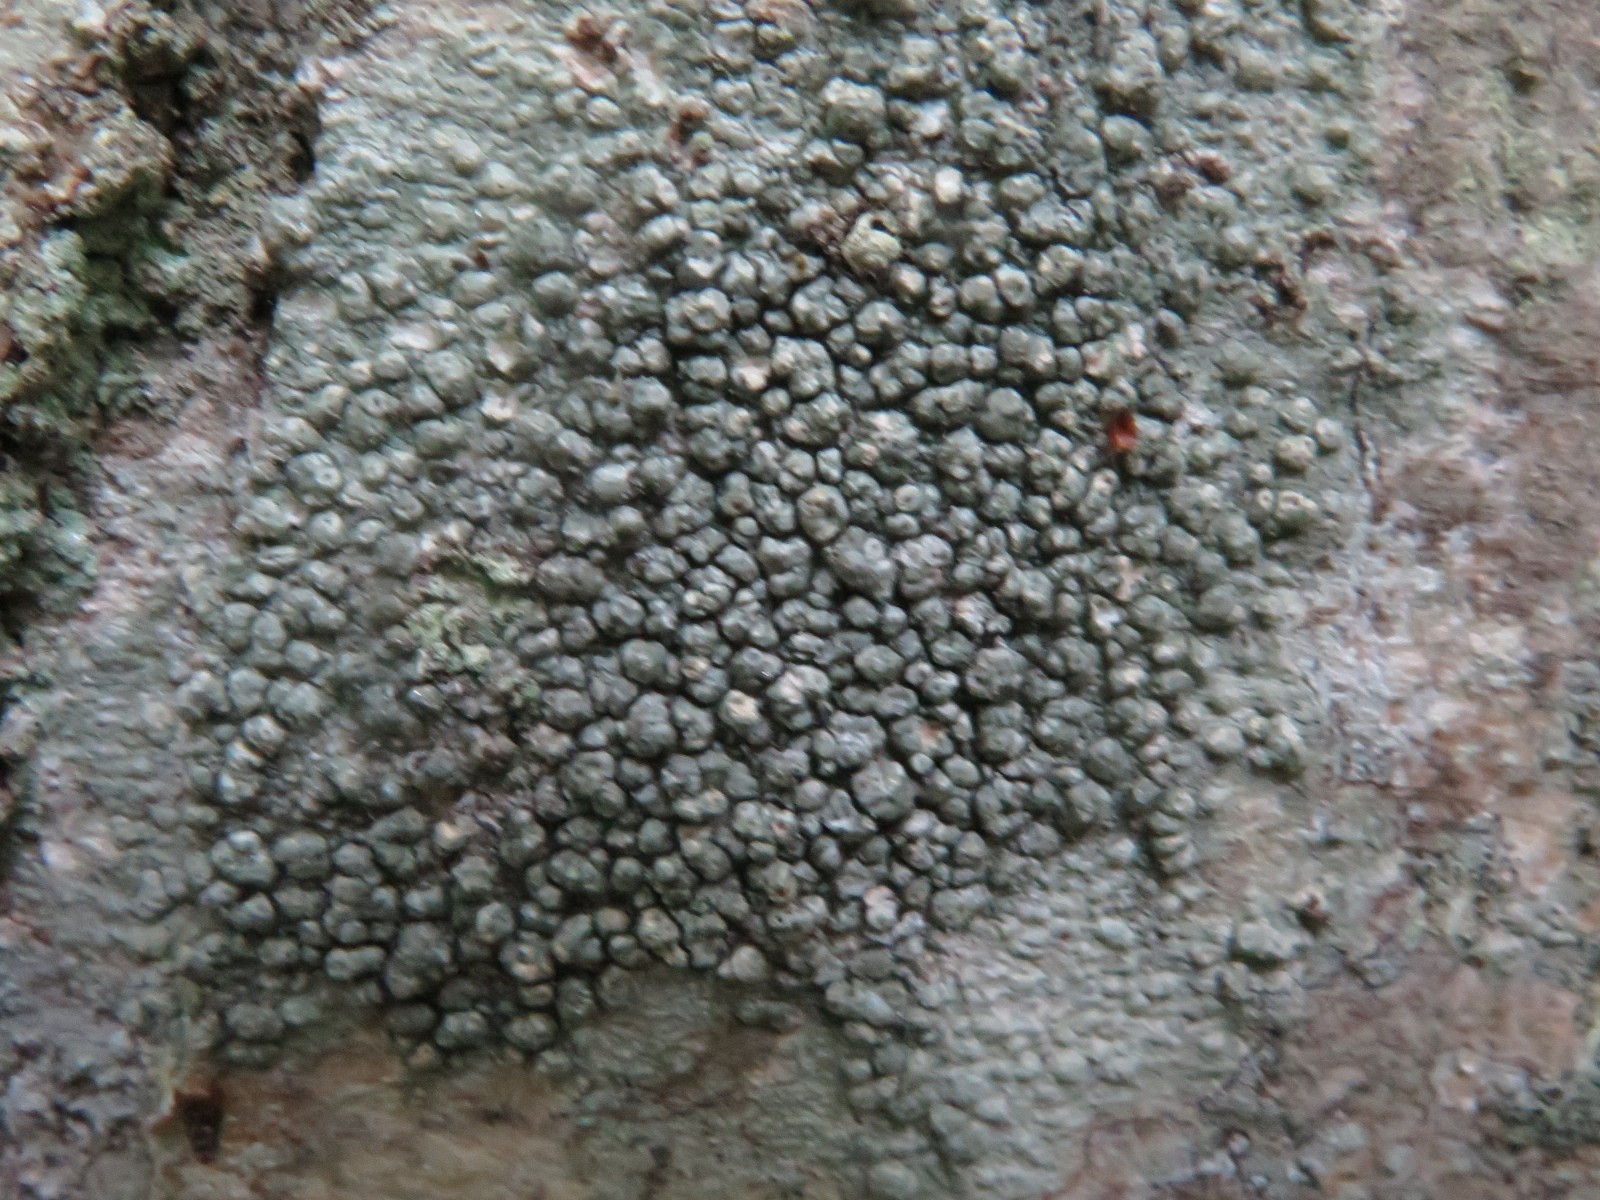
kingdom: Fungi
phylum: Ascomycota
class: Lecanoromycetes
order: Pertusariales
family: Pertusariaceae
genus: Pertusaria
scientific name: Pertusaria pertusa
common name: almindelig prikvortelav
